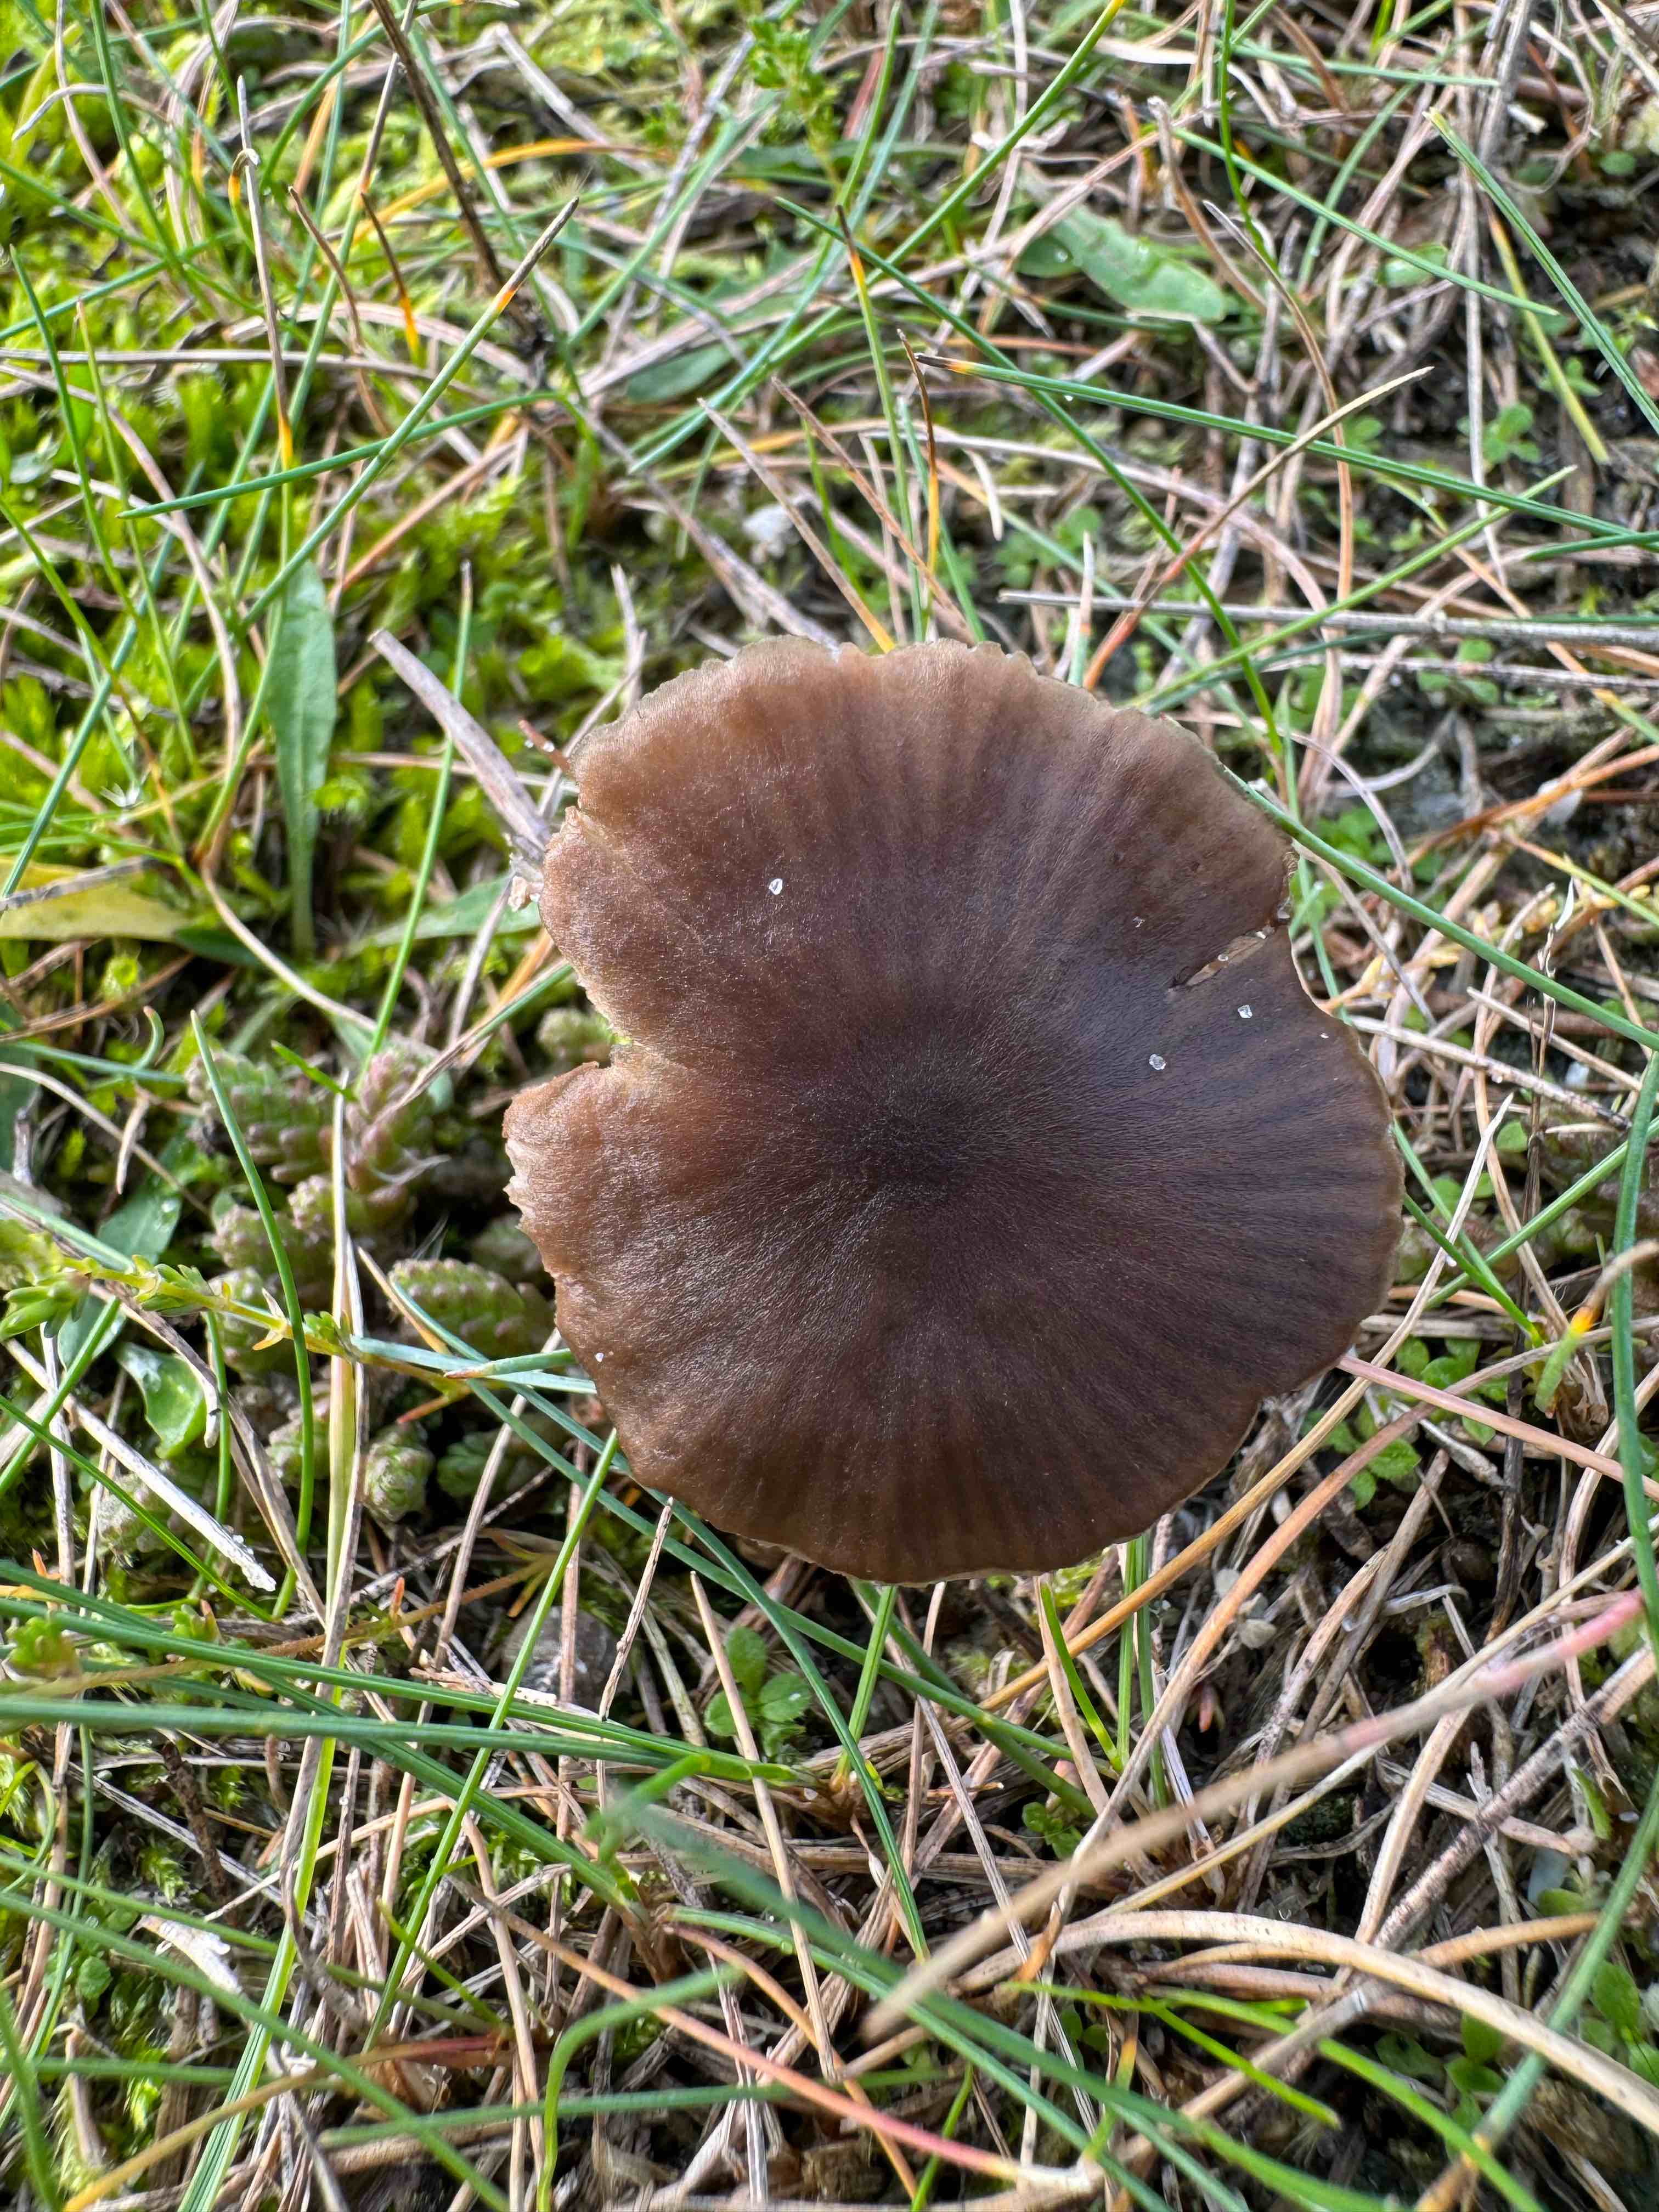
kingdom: Fungi
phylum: Basidiomycota
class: Agaricomycetes
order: Agaricales
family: Entolomataceae
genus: Entoloma
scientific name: Entoloma
